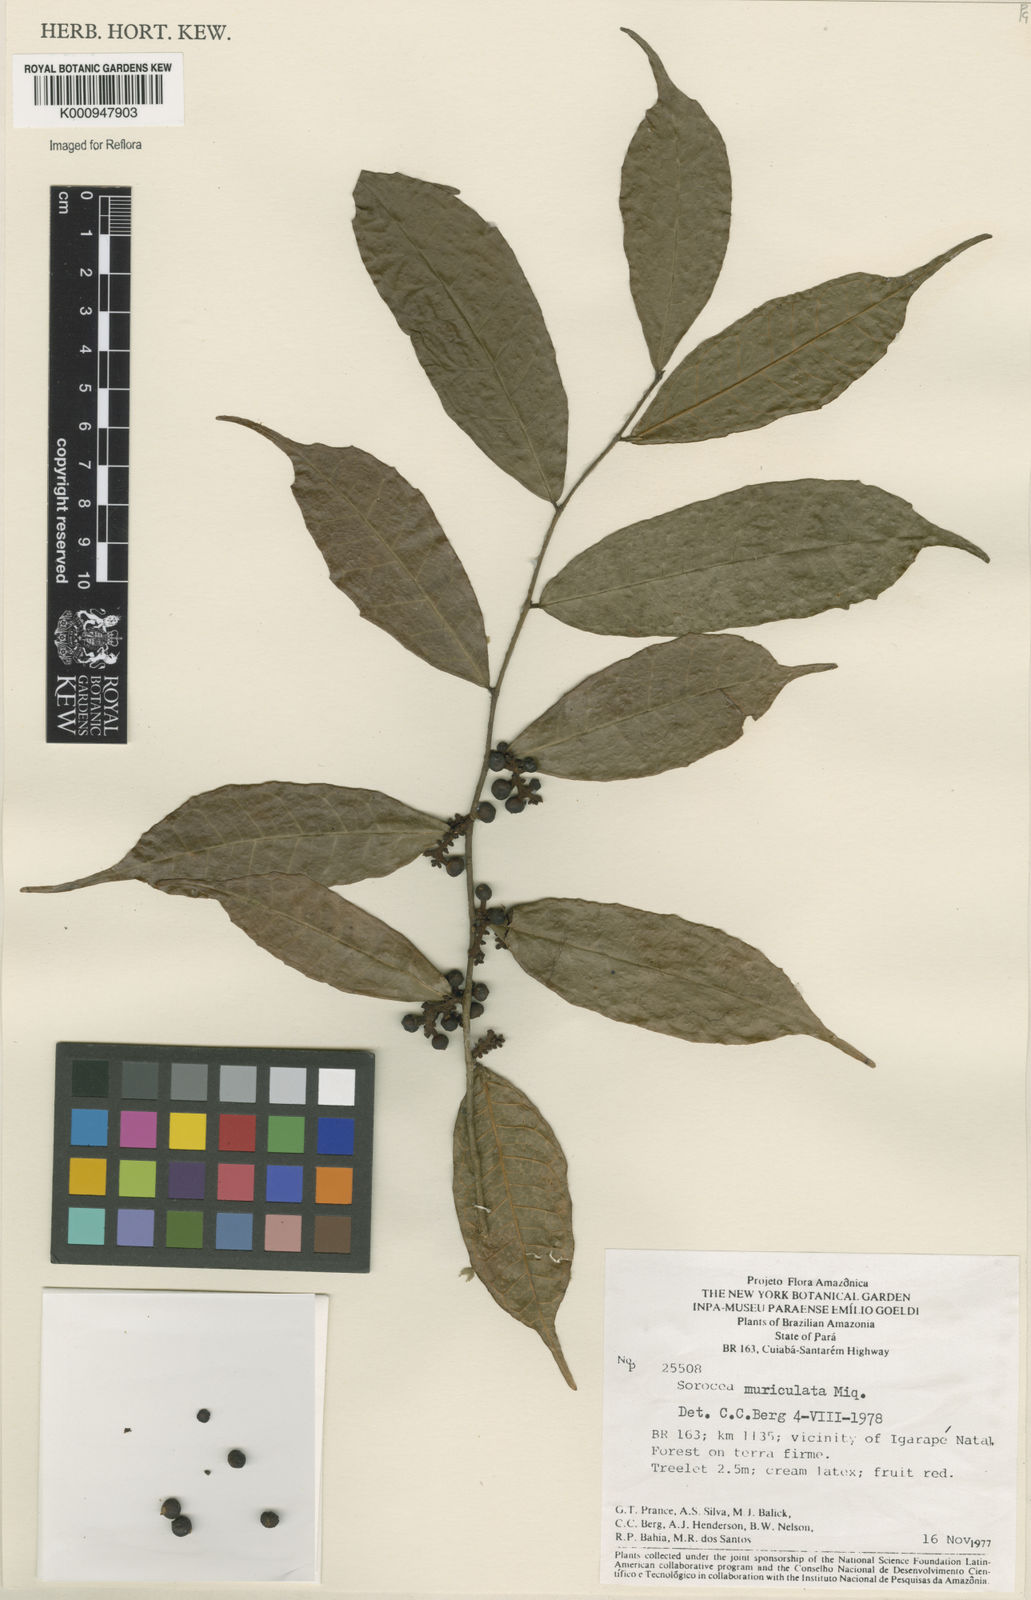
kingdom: Plantae
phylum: Tracheophyta
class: Magnoliopsida
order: Rosales
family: Moraceae
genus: Sorocea
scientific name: Sorocea muriculata
